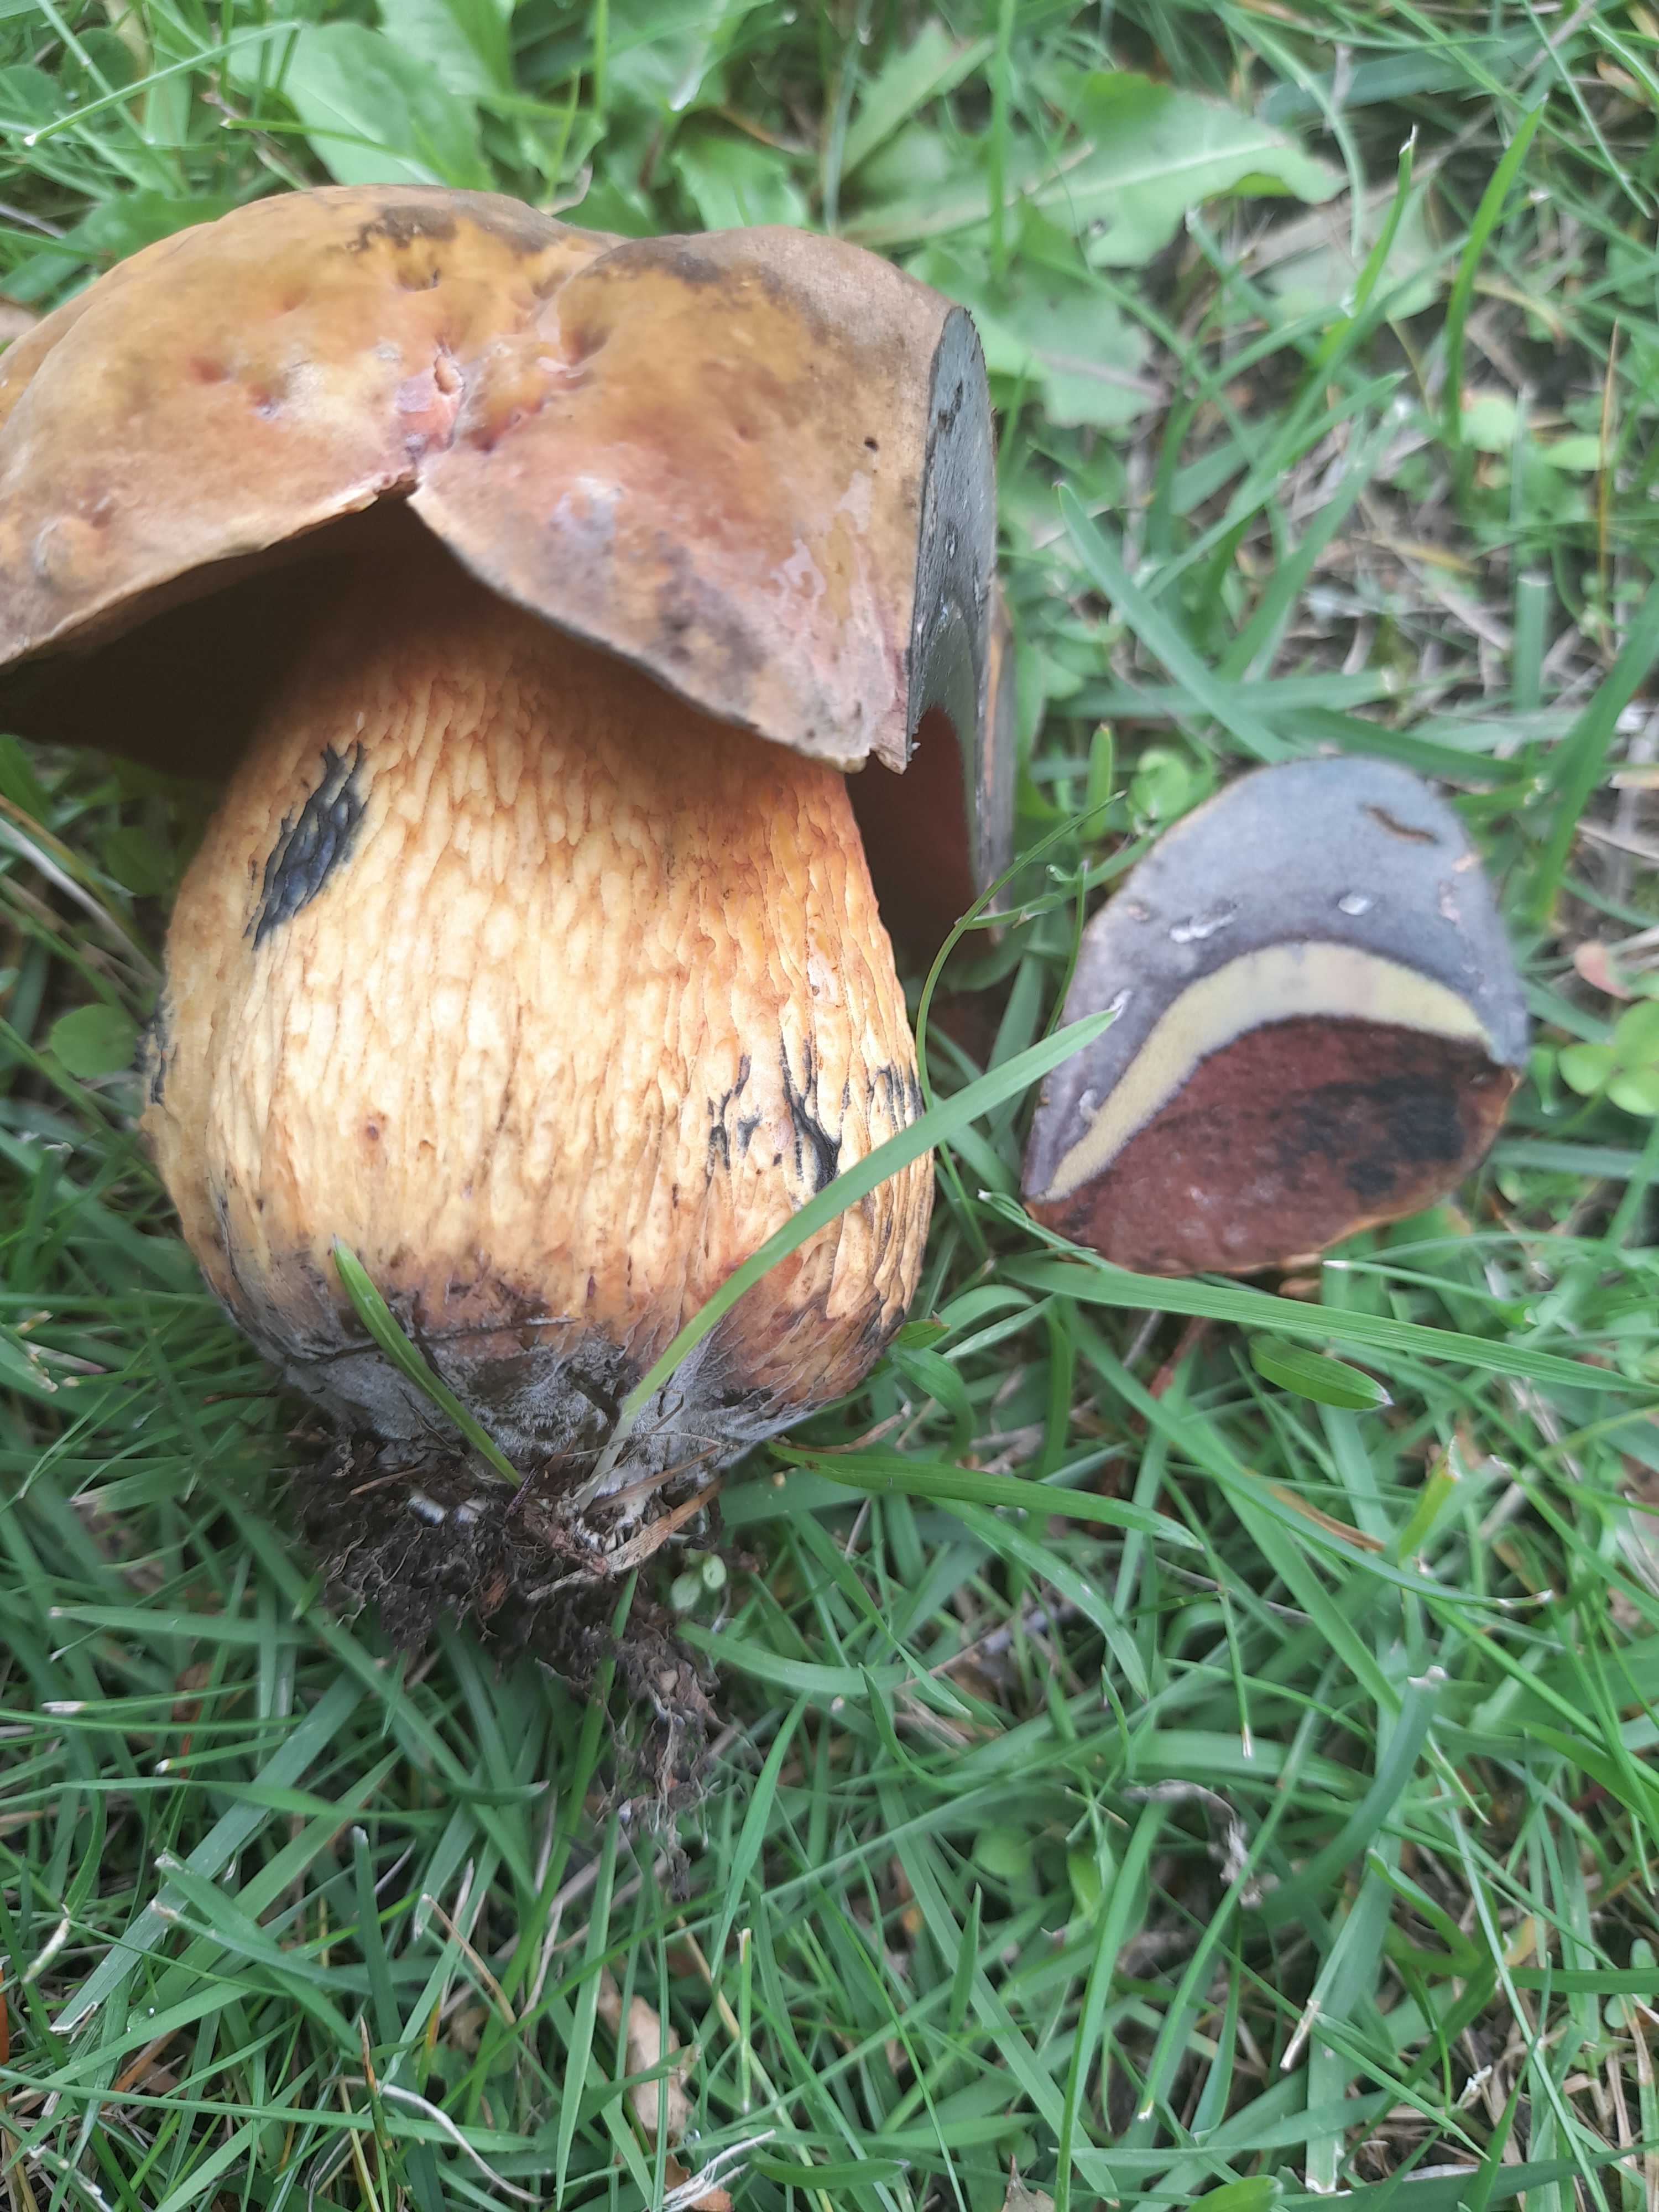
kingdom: Fungi
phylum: Basidiomycota
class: Agaricomycetes
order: Boletales
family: Boletaceae
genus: Suillellus
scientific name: Suillellus luridus
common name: netstokket indigorørhat
